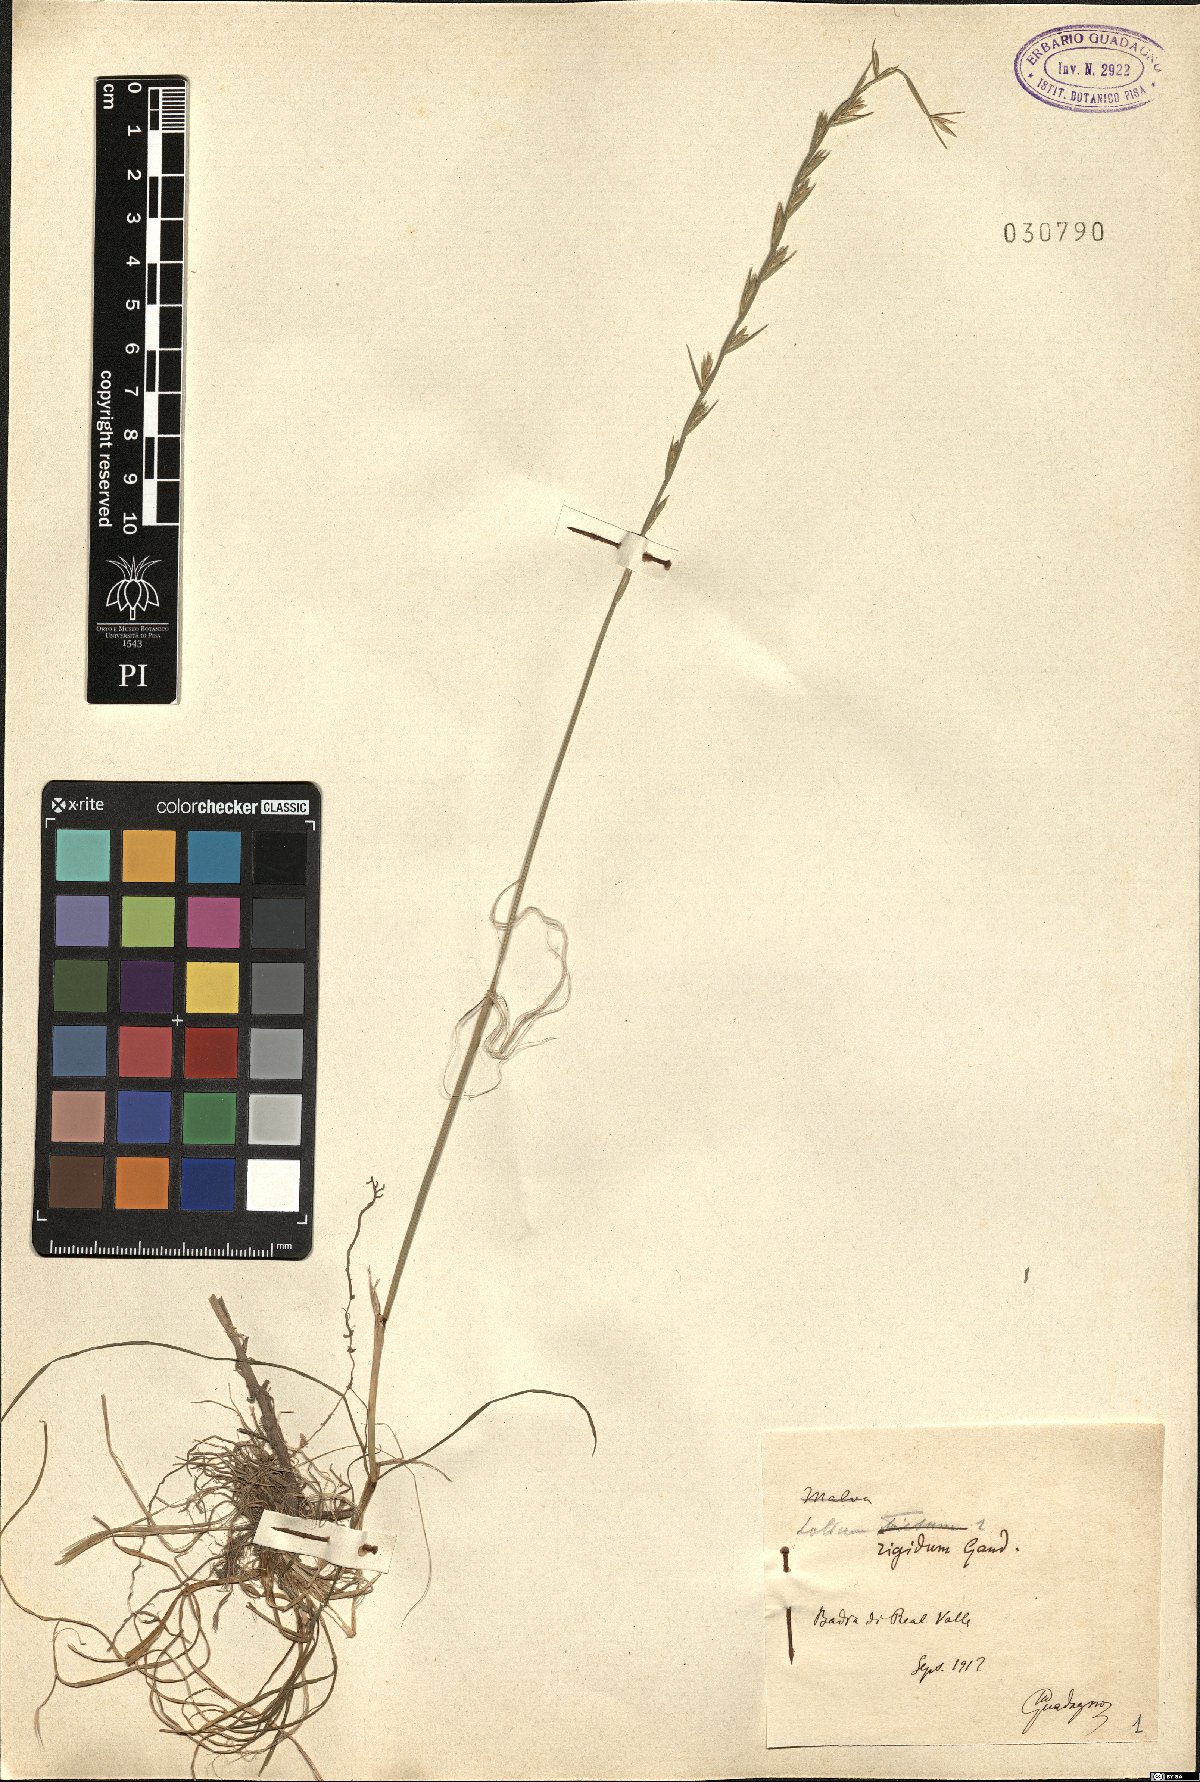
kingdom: Plantae
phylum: Tracheophyta
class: Liliopsida
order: Poales
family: Poaceae
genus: Lolium
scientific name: Lolium rigidum
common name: Wimmera ryegrass
